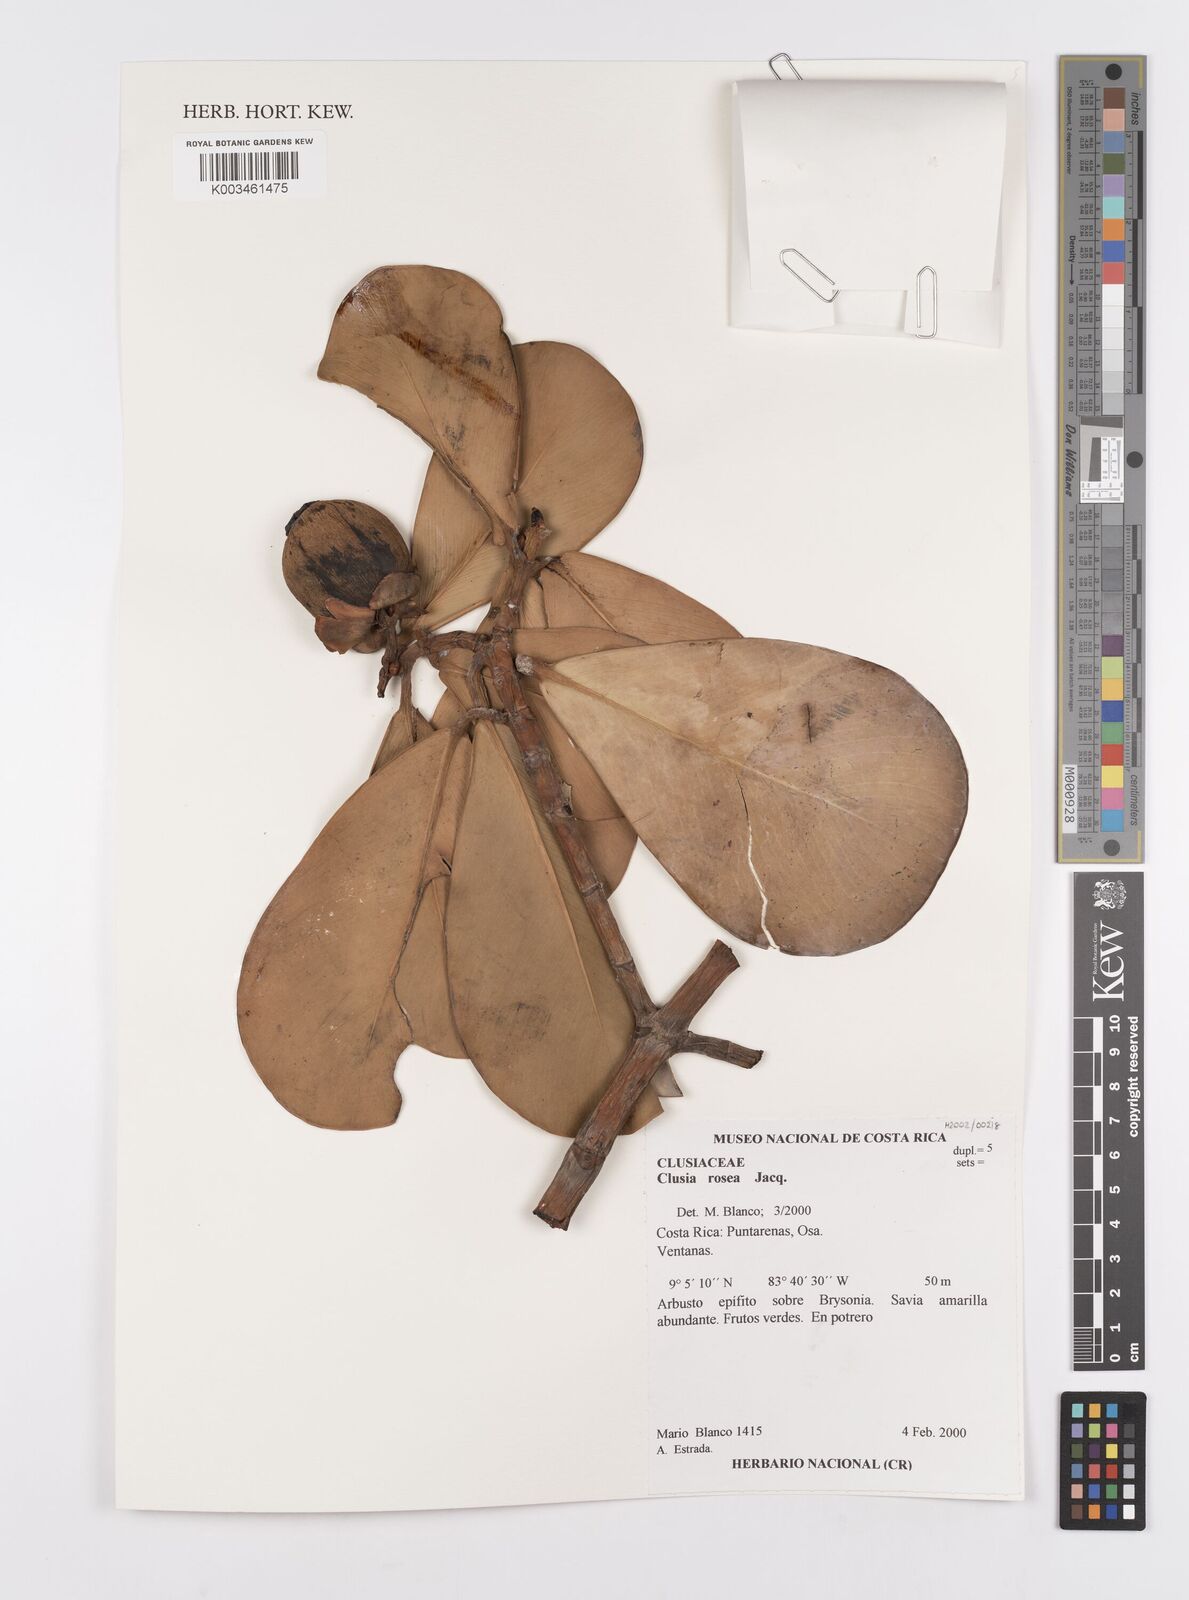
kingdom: Plantae
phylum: Tracheophyta
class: Magnoliopsida
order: Malpighiales
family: Clusiaceae
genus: Clusia
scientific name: Clusia rosea
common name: Scotch attorney
